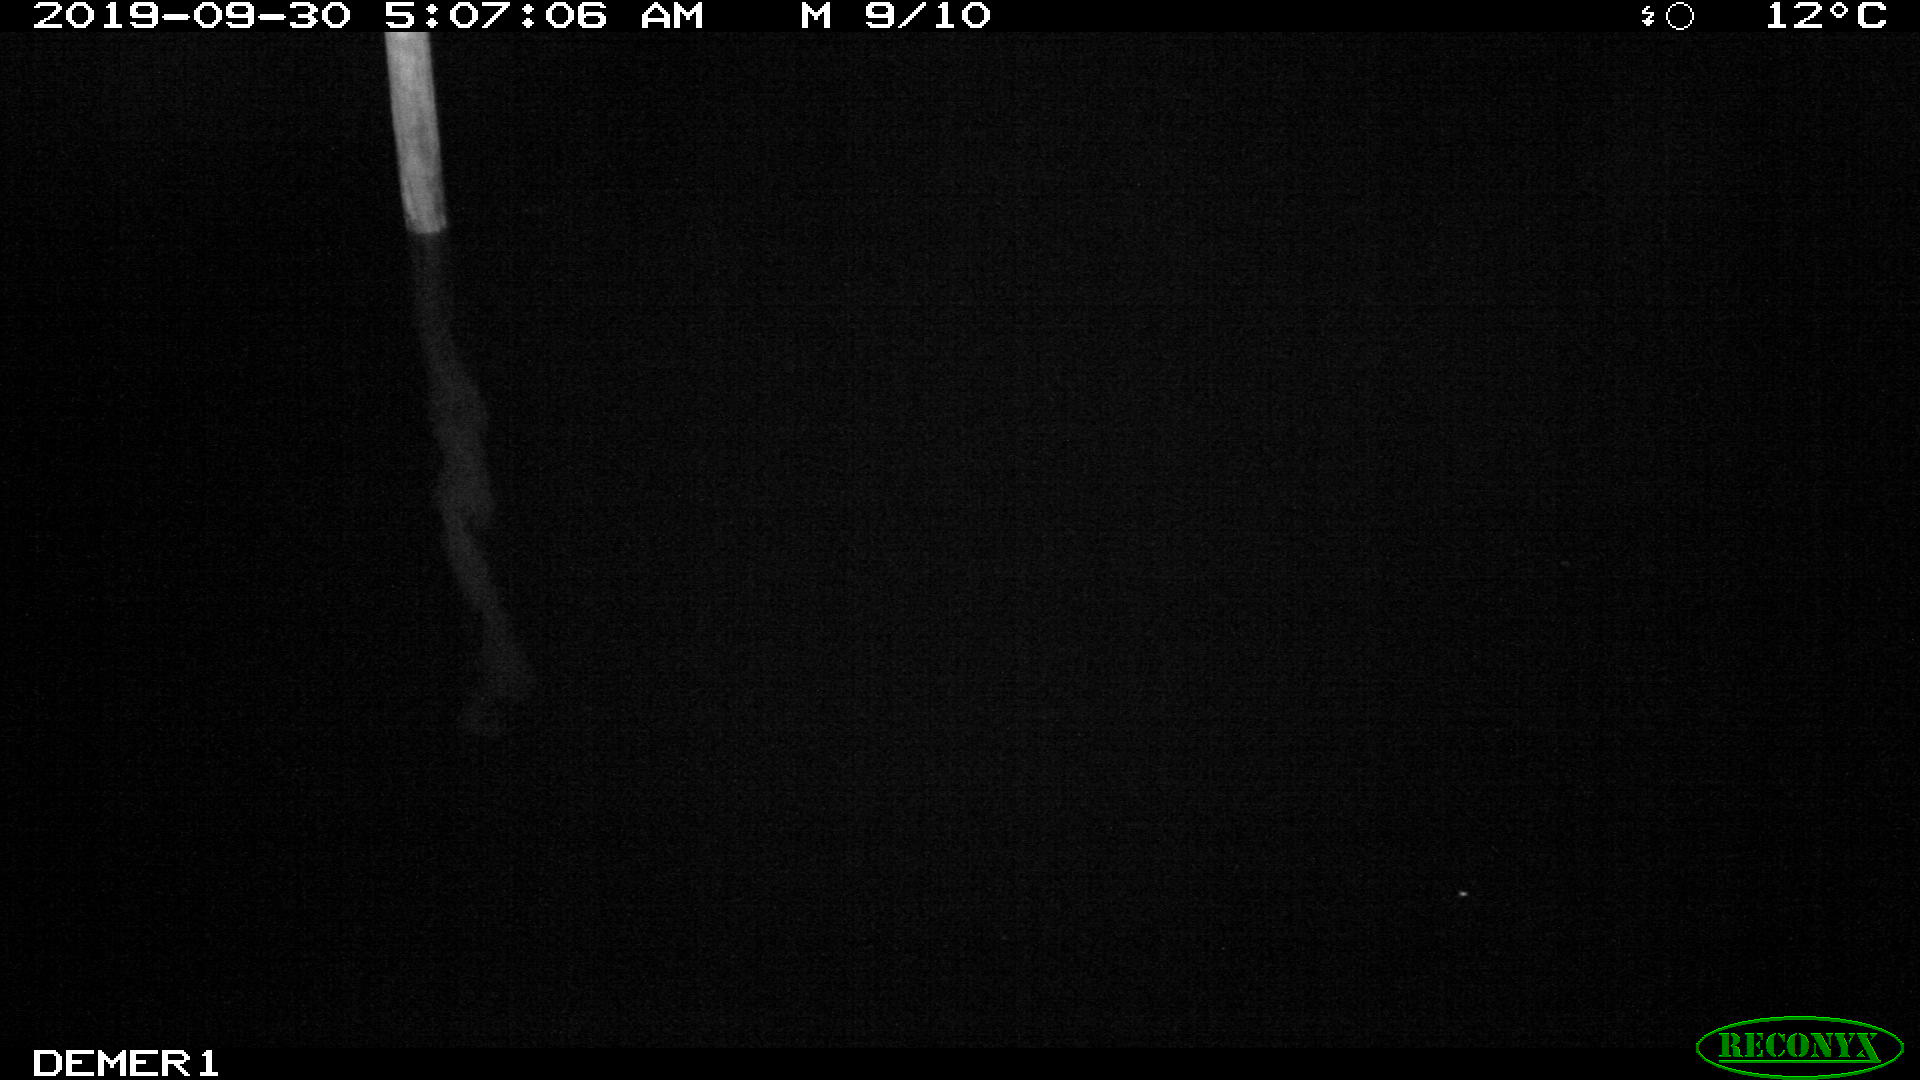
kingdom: Animalia
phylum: Chordata
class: Aves
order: Anseriformes
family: Anatidae
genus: Anas
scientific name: Anas platyrhynchos
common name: Mallard
